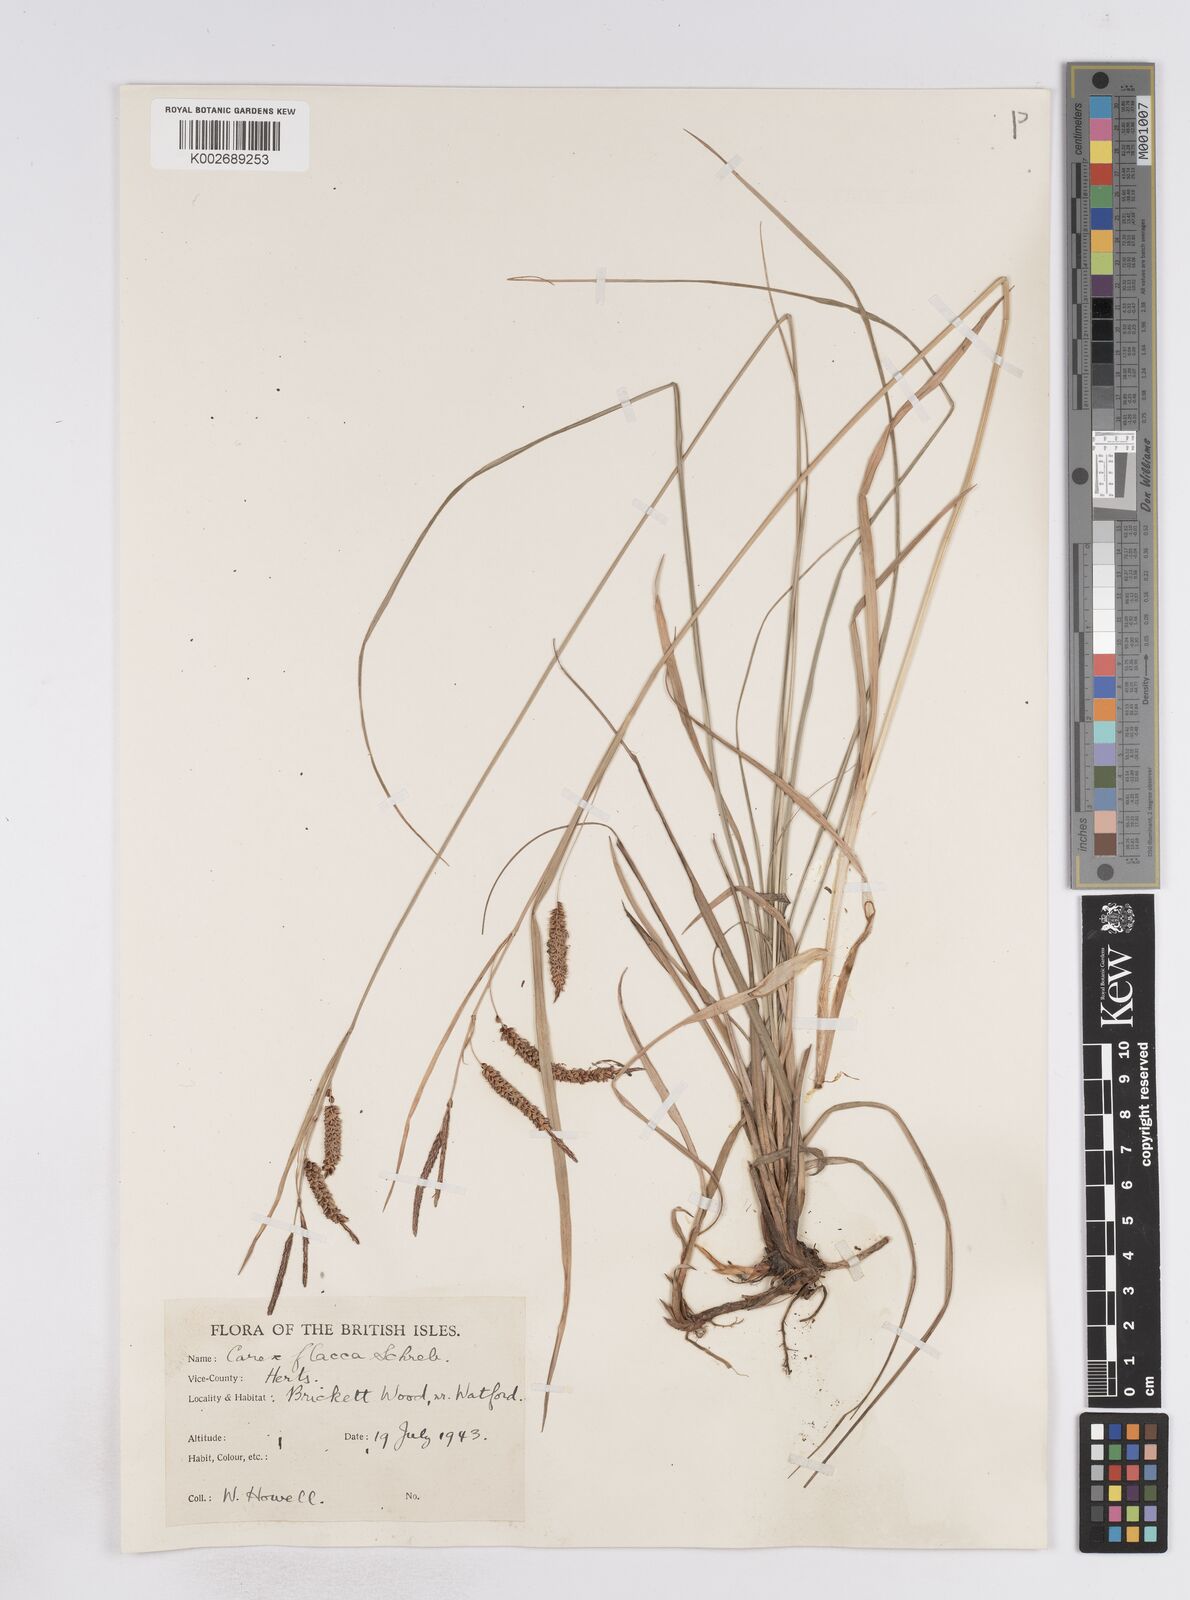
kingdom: Plantae
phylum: Tracheophyta
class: Liliopsida
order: Poales
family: Cyperaceae
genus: Carex
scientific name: Carex flacca
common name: Glaucous sedge
